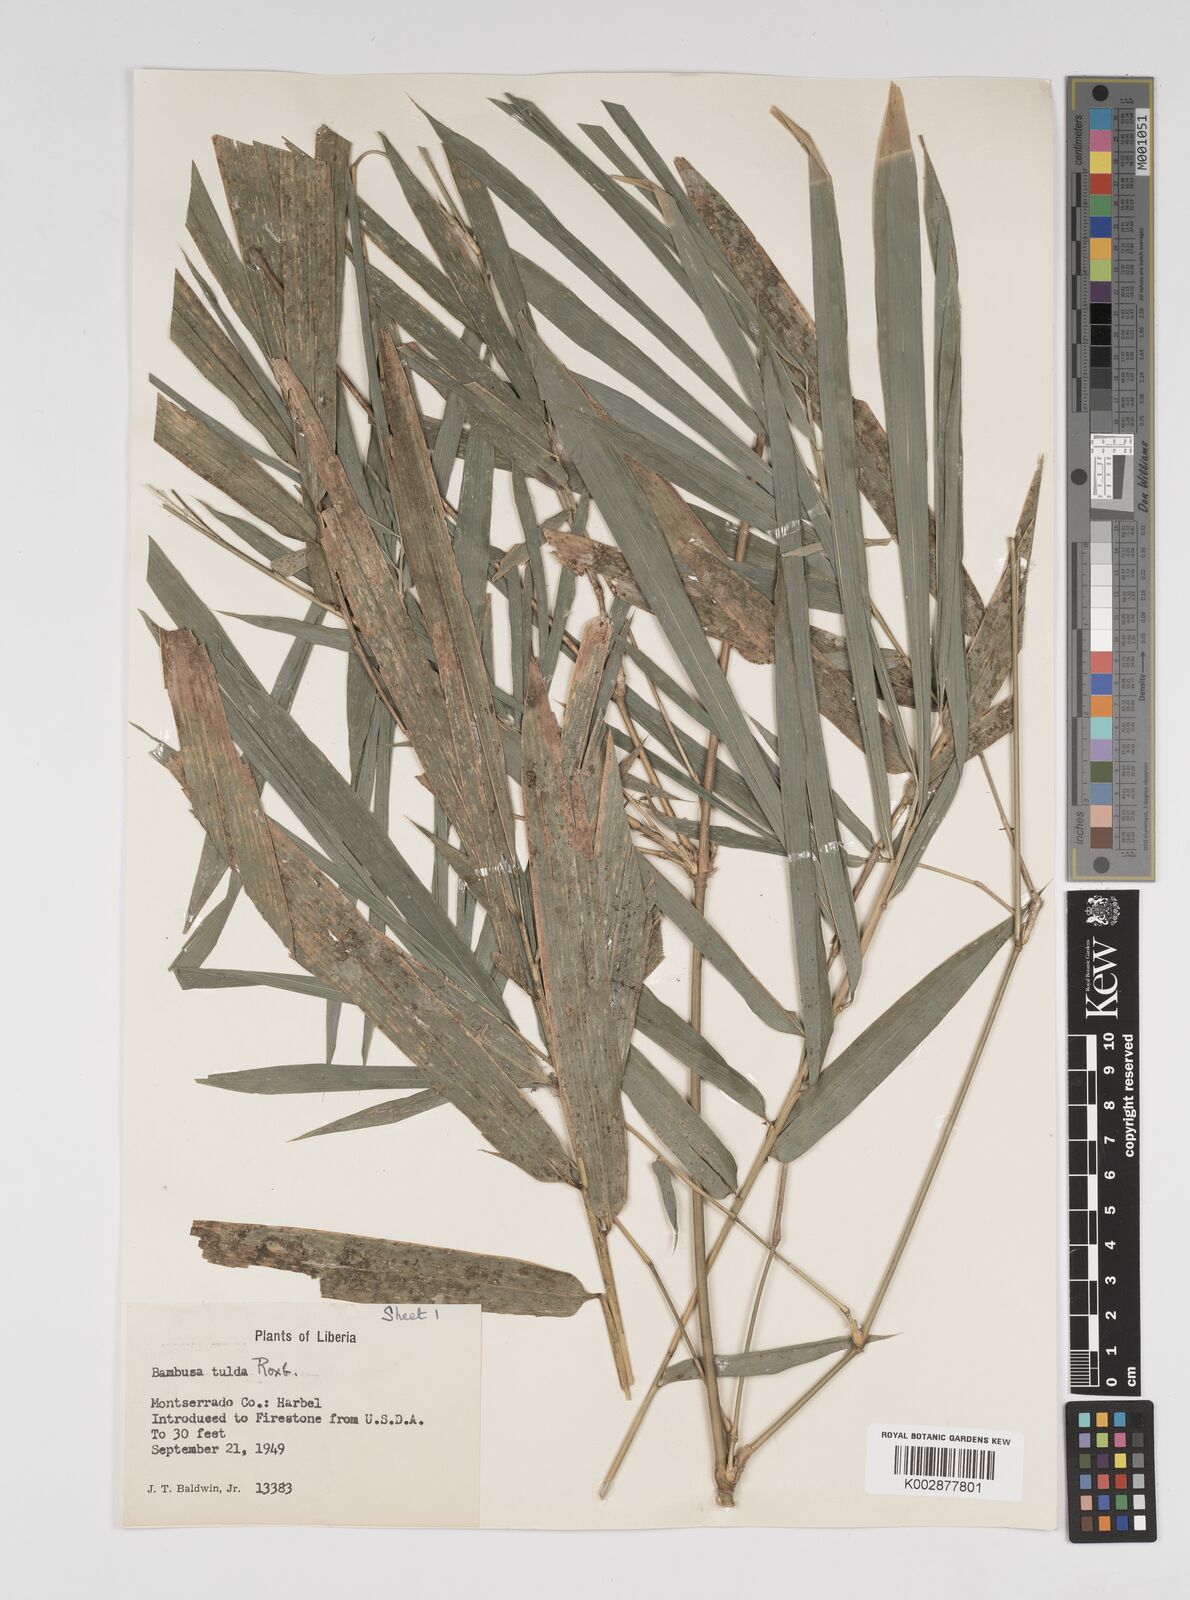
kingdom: Plantae
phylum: Tracheophyta
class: Liliopsida
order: Poales
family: Poaceae
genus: Bambusa
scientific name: Bambusa tulda
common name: Bengal bamboo
